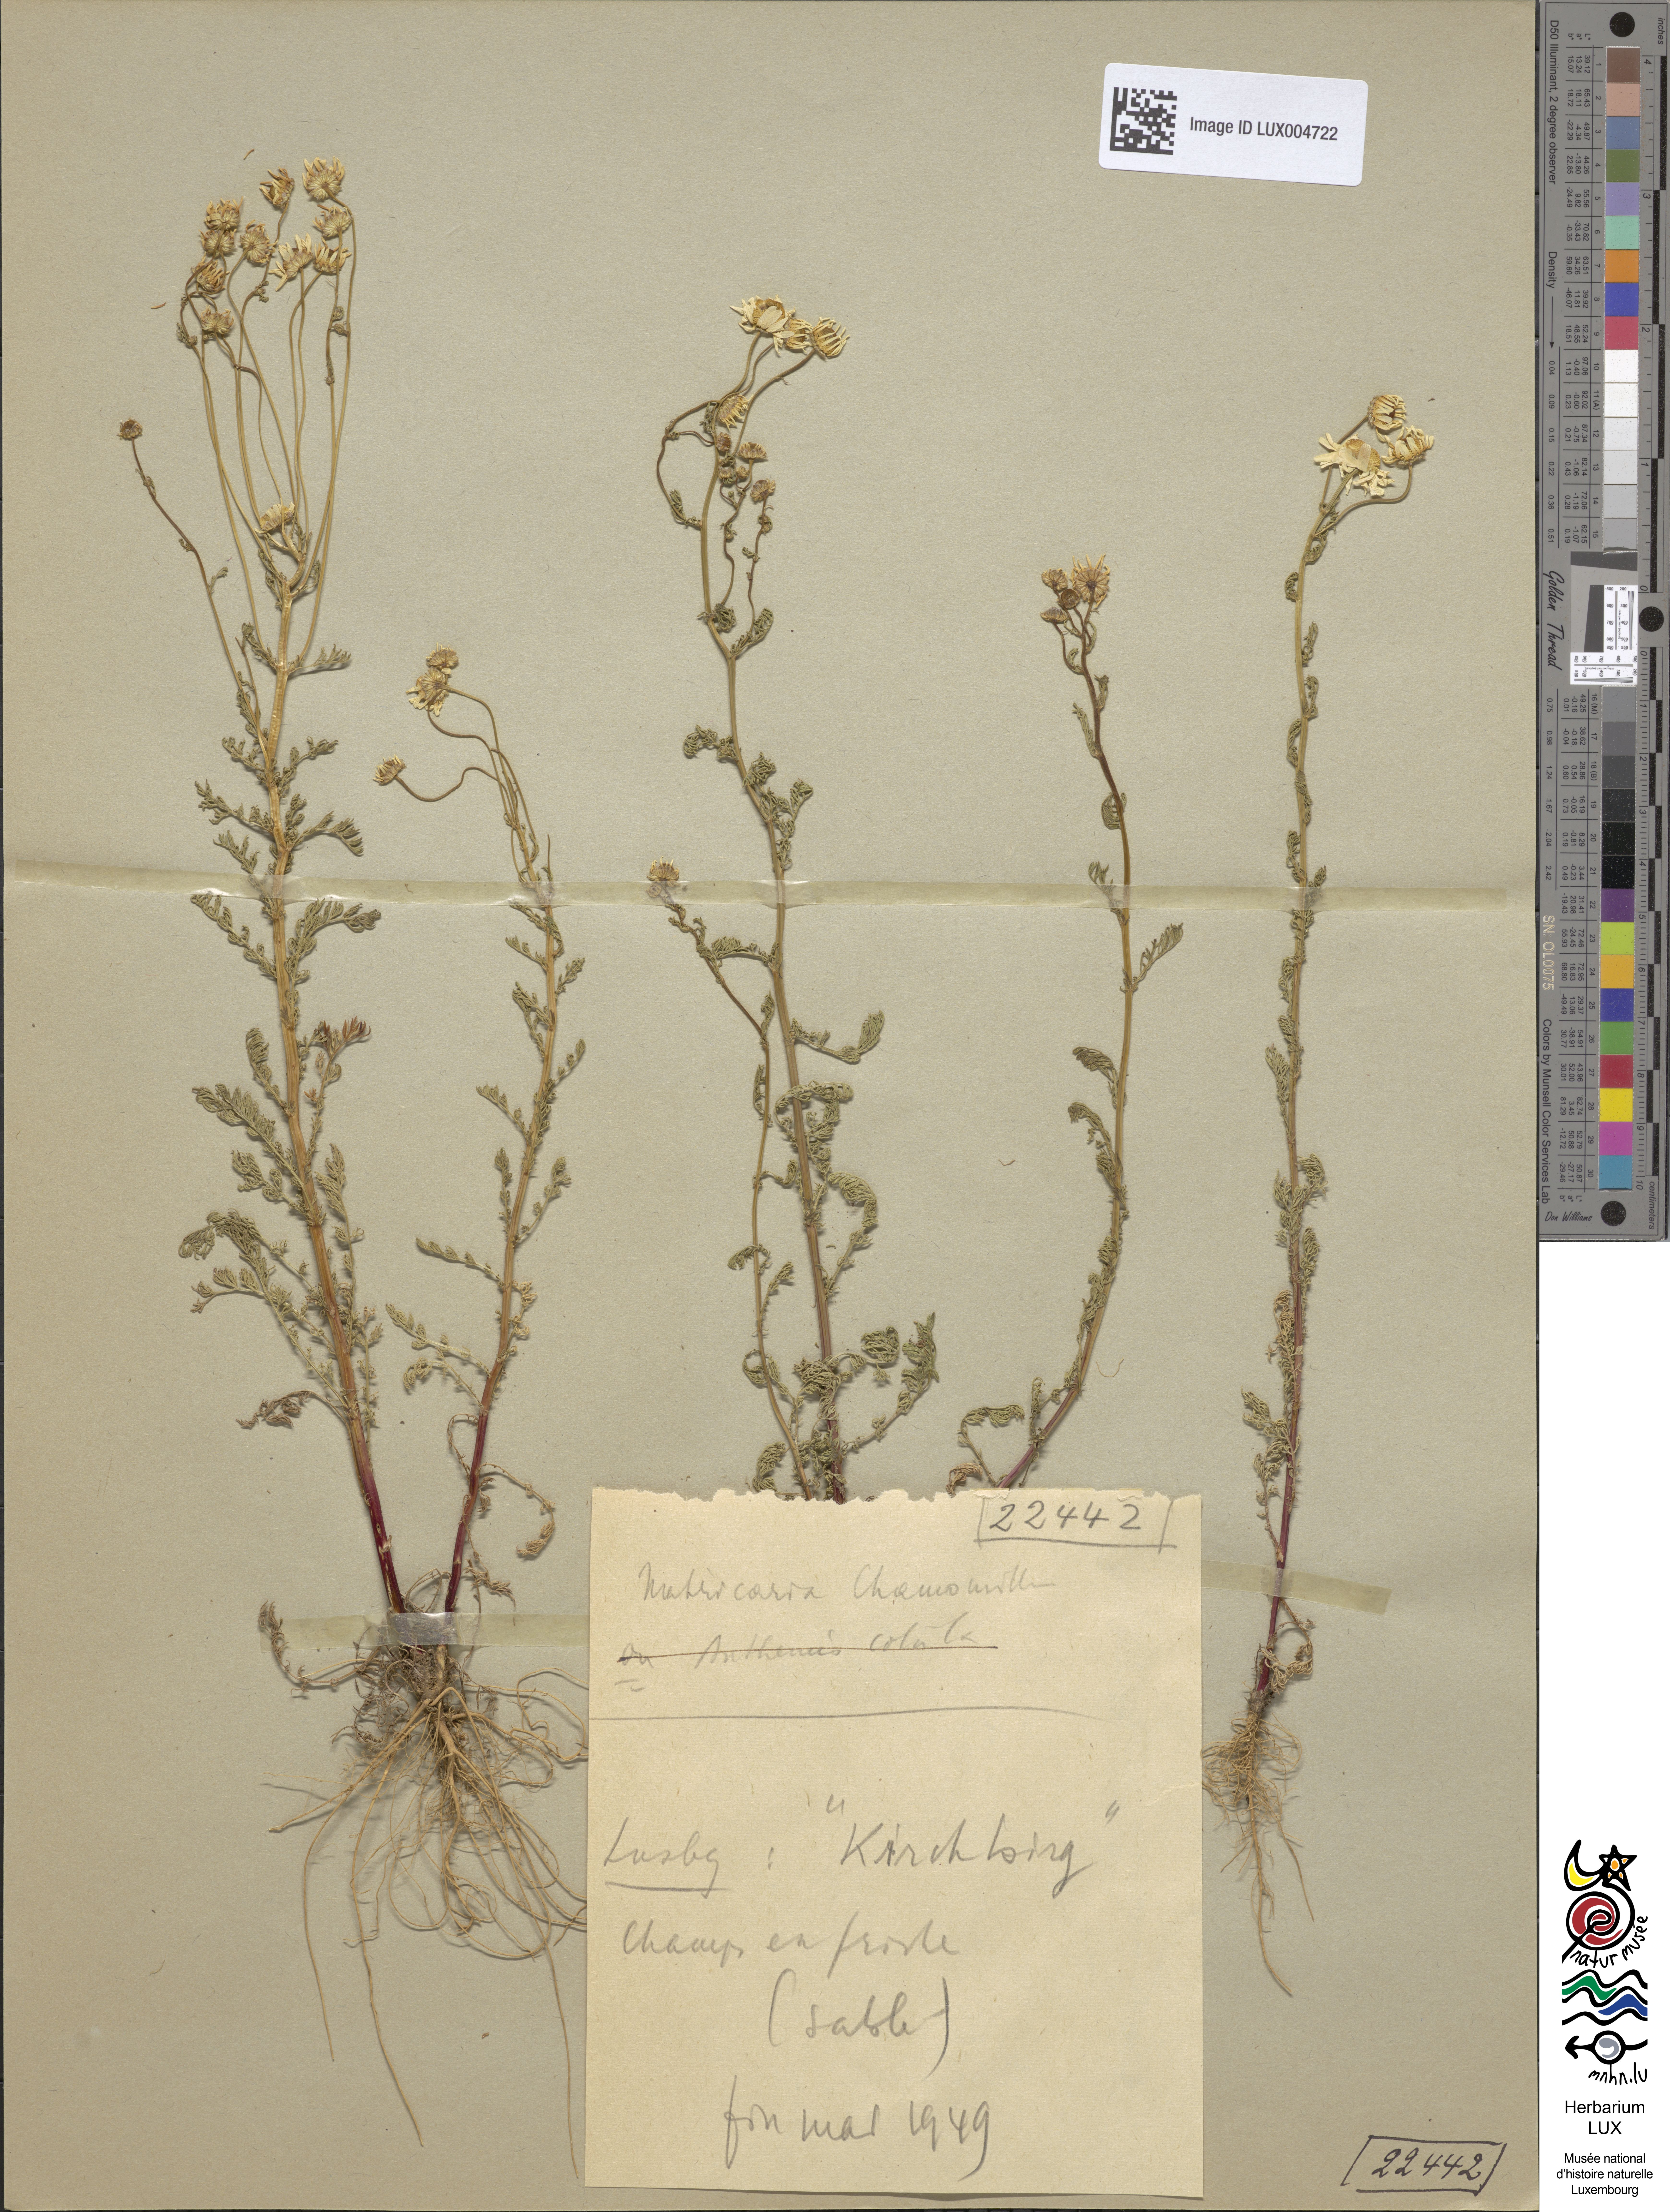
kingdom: Plantae
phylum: Tracheophyta
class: Magnoliopsida
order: Asterales
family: Asteraceae
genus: Matricaria
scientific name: Matricaria chamomilla
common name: Scented mayweed
